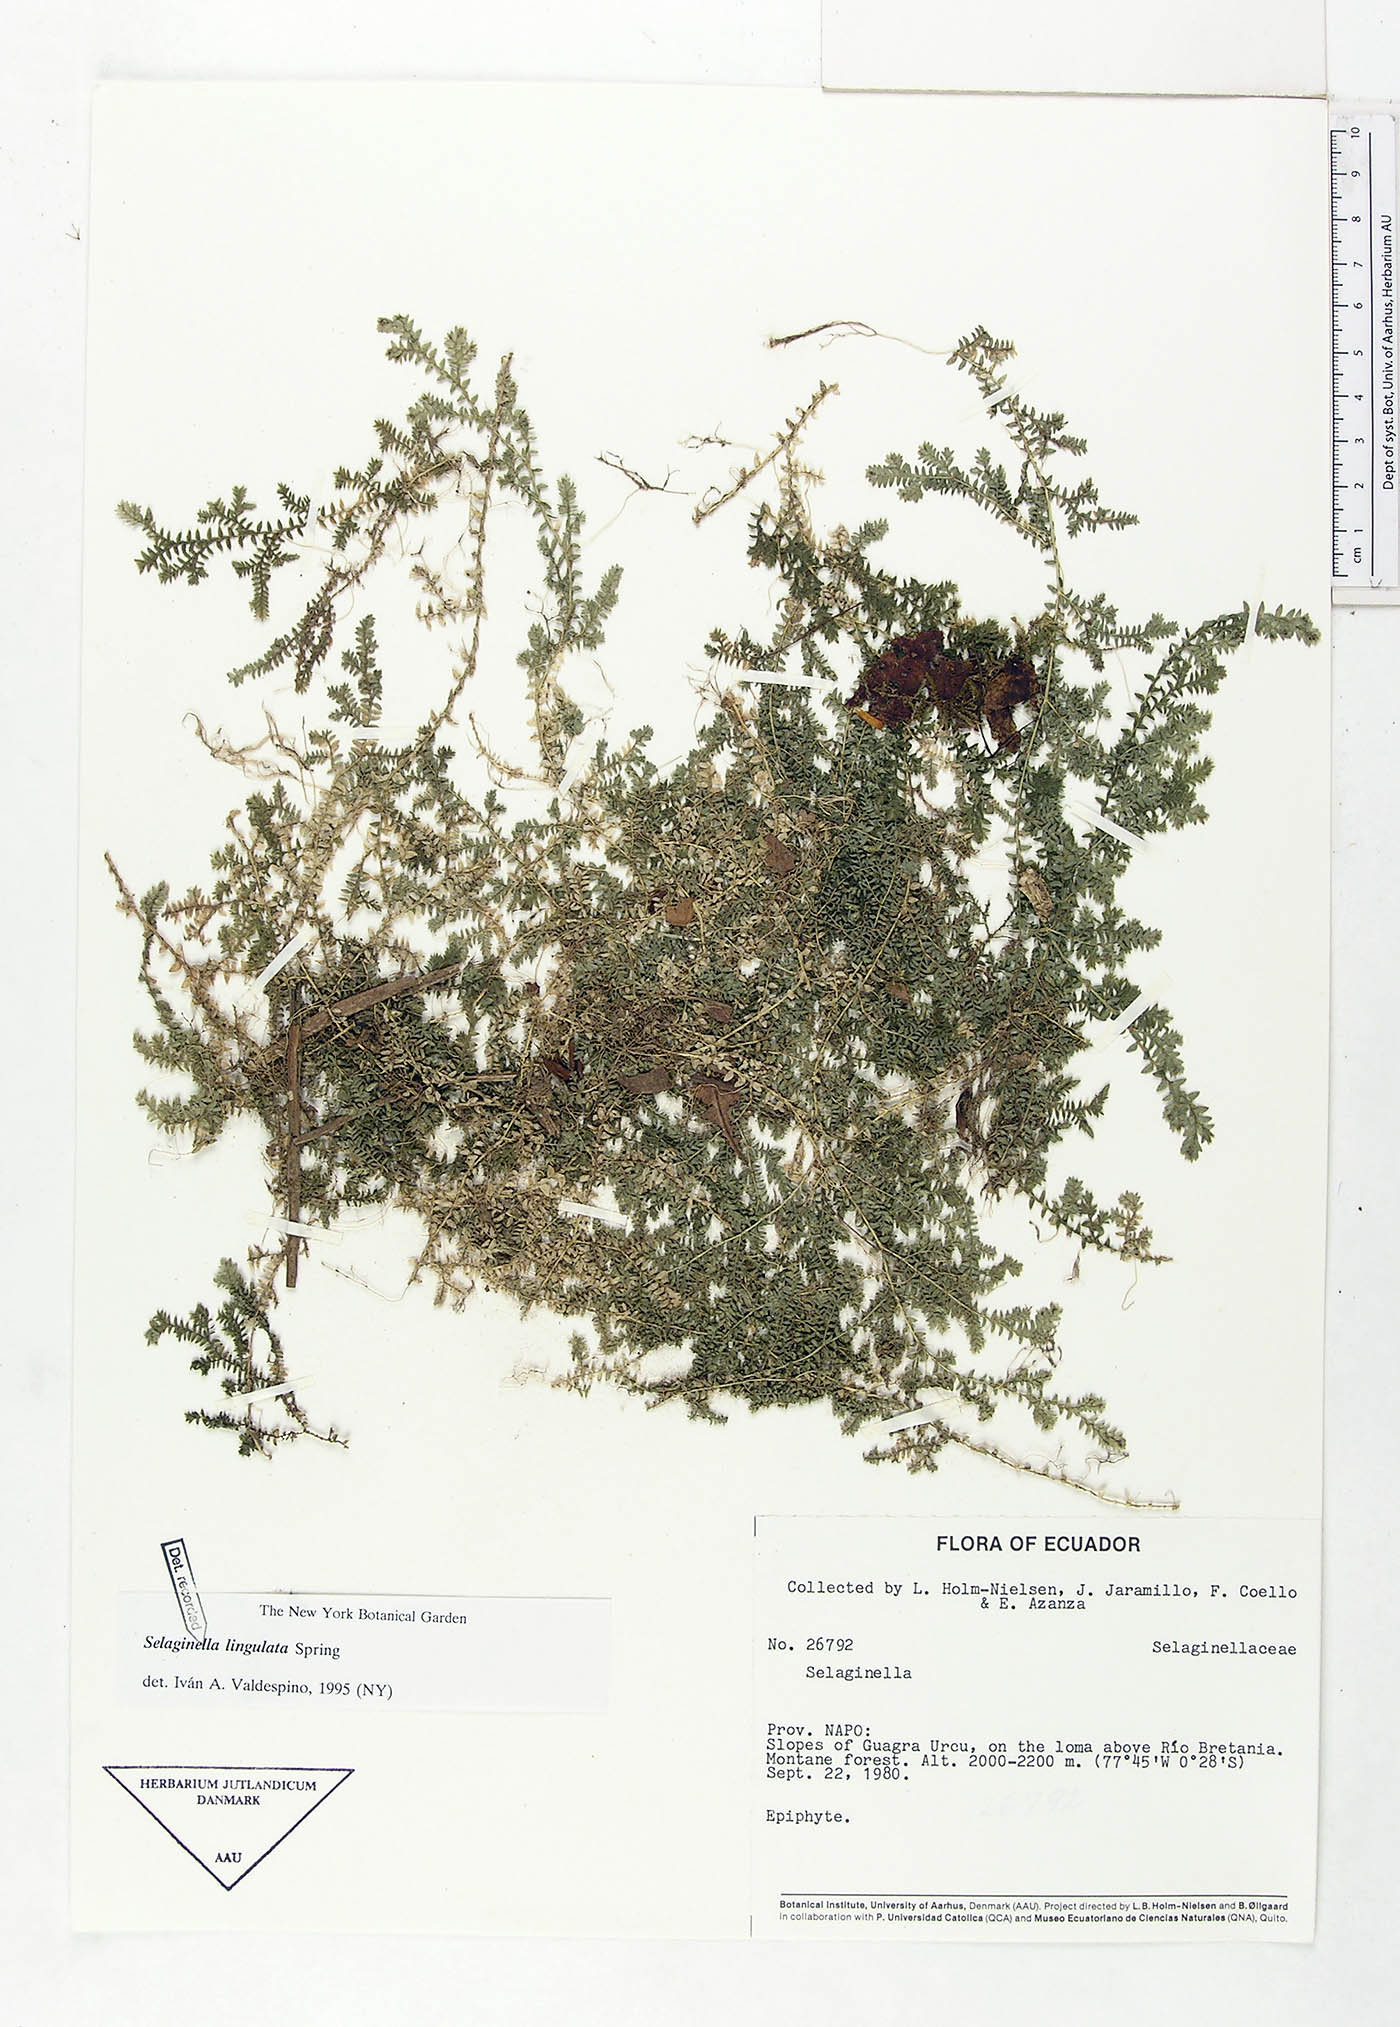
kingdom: Plantae
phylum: Tracheophyta
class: Lycopodiopsida
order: Selaginellales
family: Selaginellaceae
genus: Selaginella
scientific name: Selaginella lingulata
